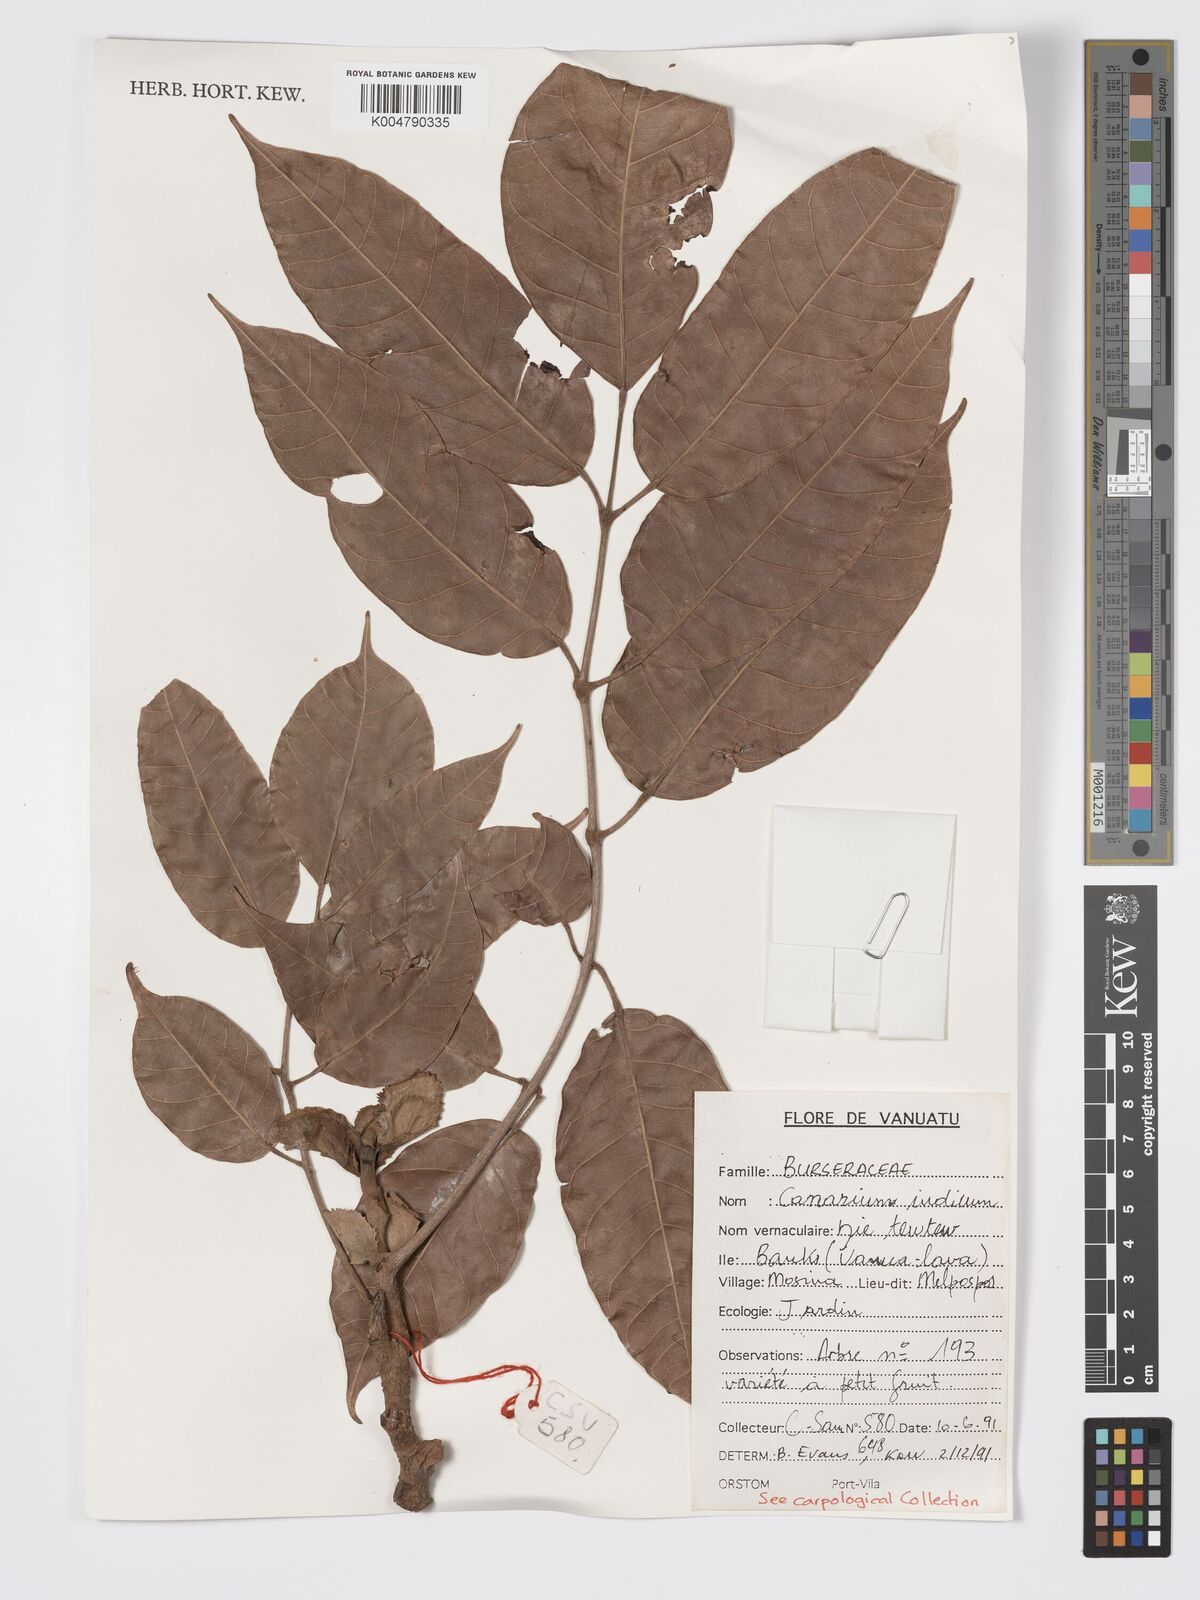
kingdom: Plantae
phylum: Tracheophyta
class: Magnoliopsida
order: Sapindales
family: Burseraceae
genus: Canarium
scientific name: Canarium indicum
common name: Canarium-nut
